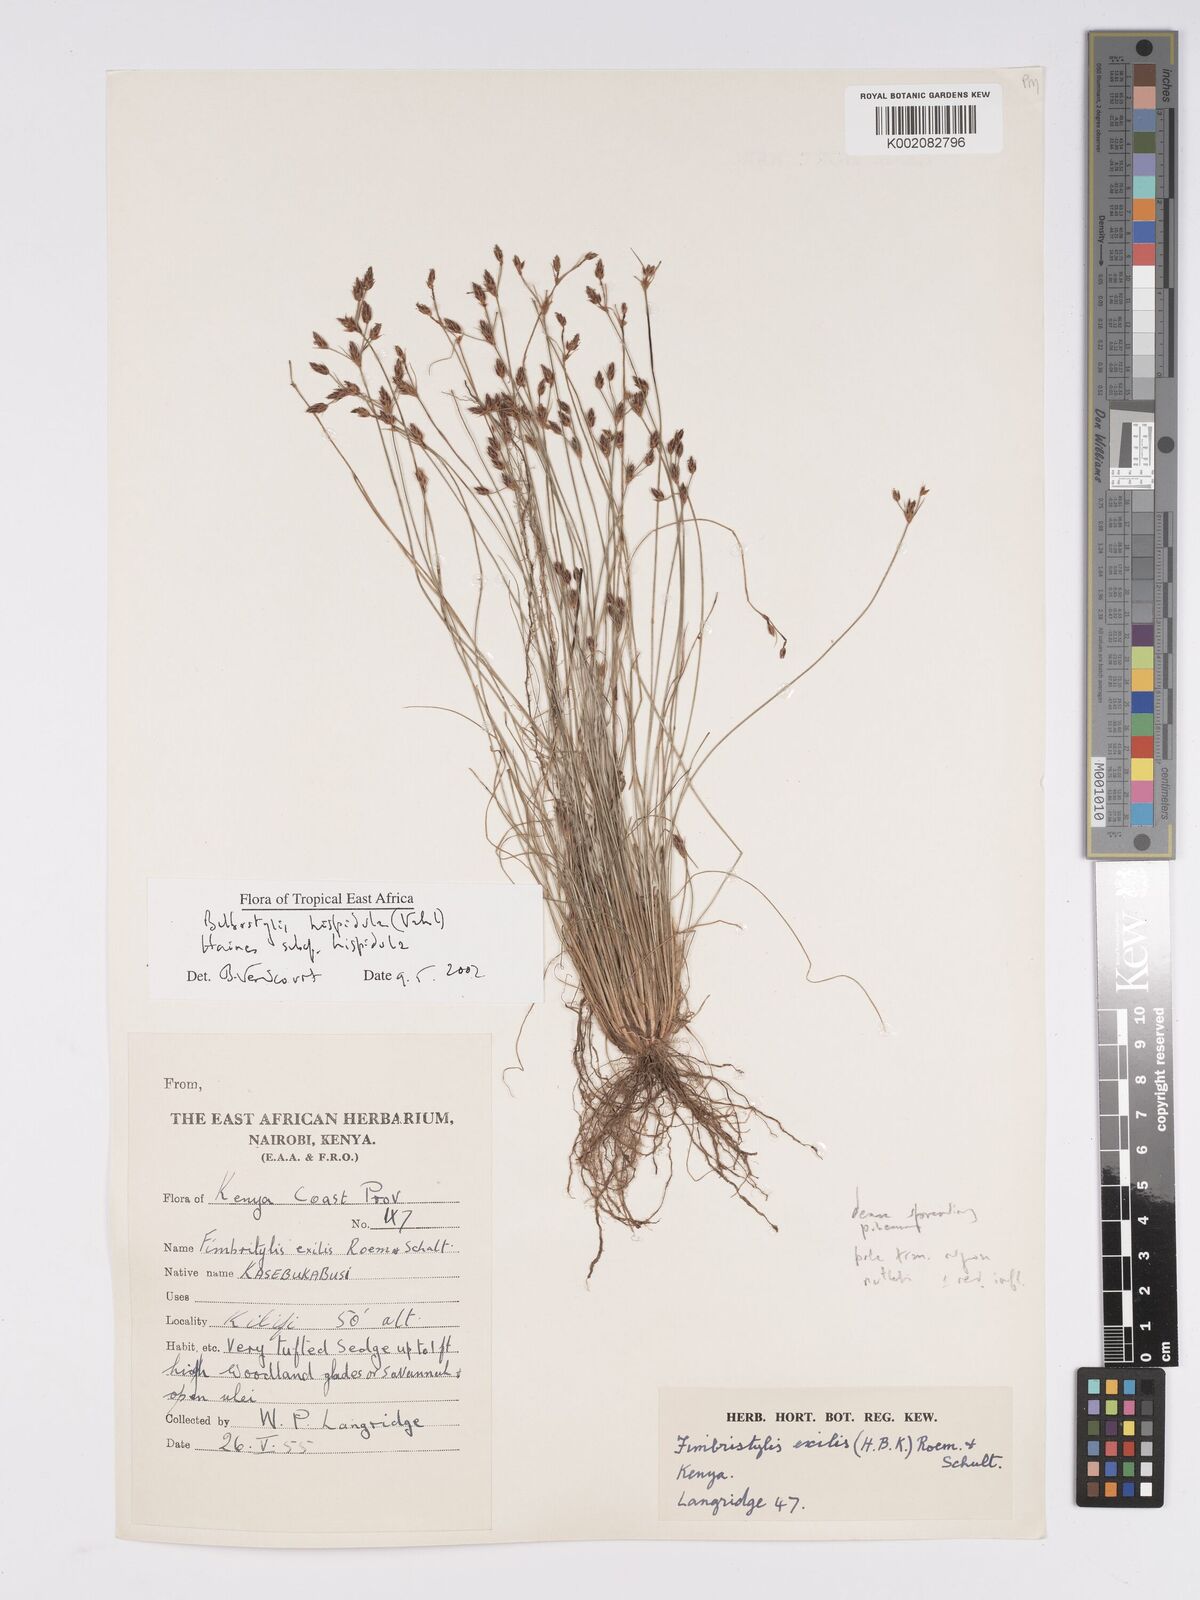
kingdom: Plantae
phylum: Tracheophyta
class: Liliopsida
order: Poales
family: Cyperaceae
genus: Bulbostylis
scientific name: Bulbostylis hispidula
